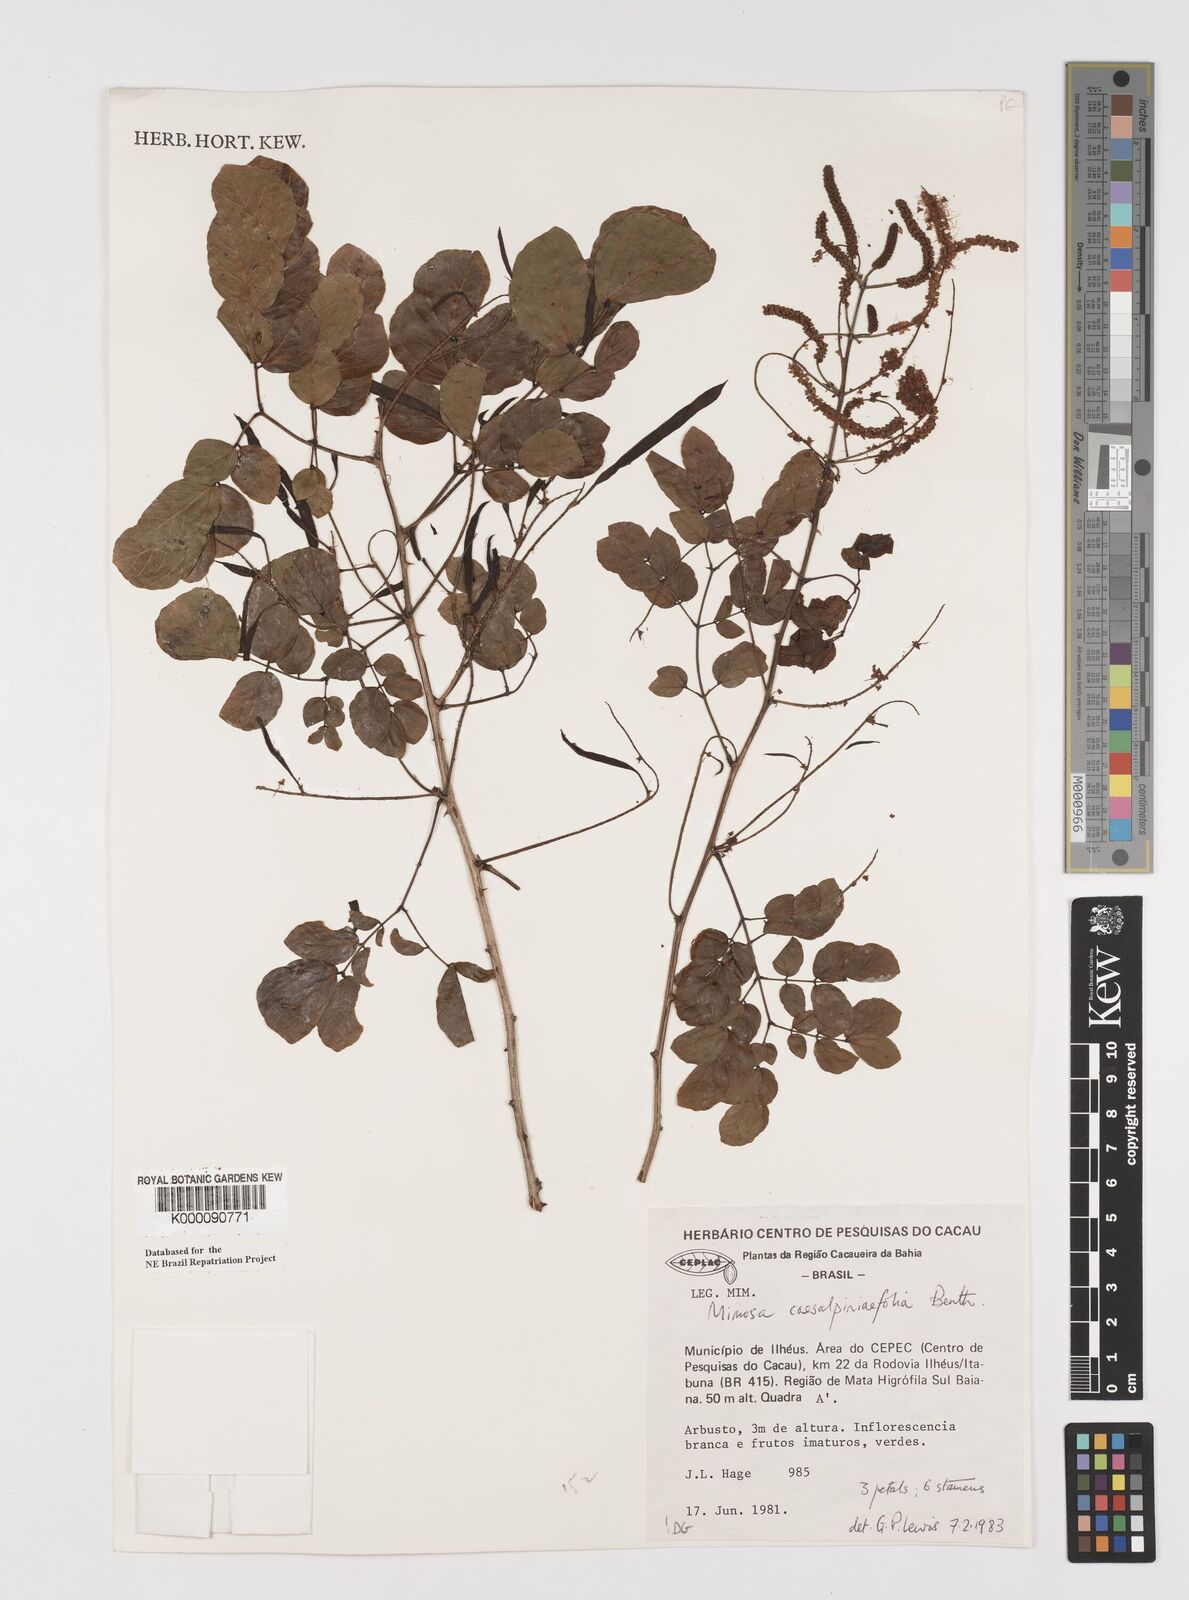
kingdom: Plantae
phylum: Tracheophyta
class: Magnoliopsida
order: Fabales
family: Fabaceae
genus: Mimosa
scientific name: Mimosa caesalpiniifolia
